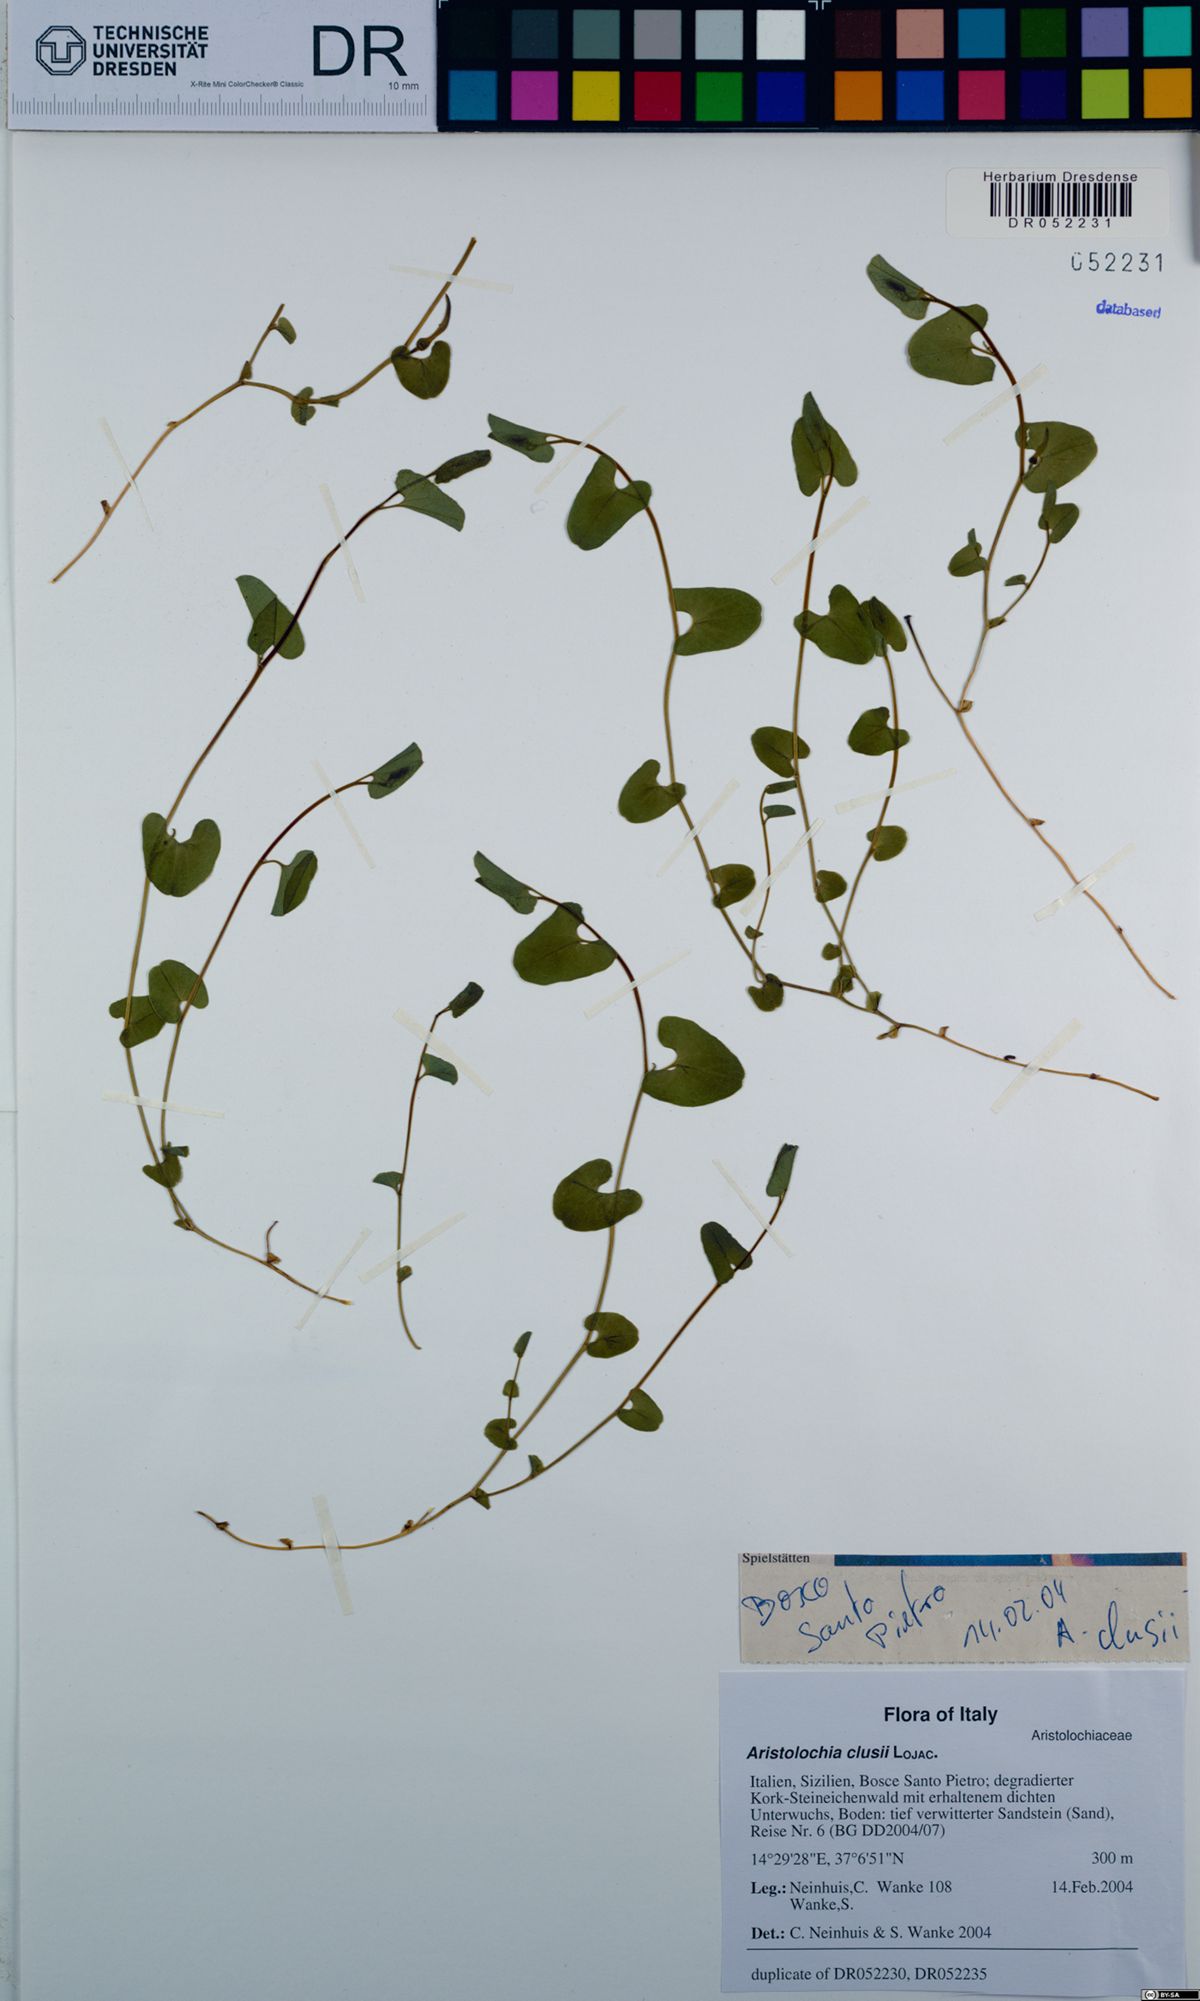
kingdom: Plantae
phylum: Tracheophyta
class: Magnoliopsida
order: Piperales
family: Aristolochiaceae
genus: Aristolochia
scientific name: Aristolochia clusii
